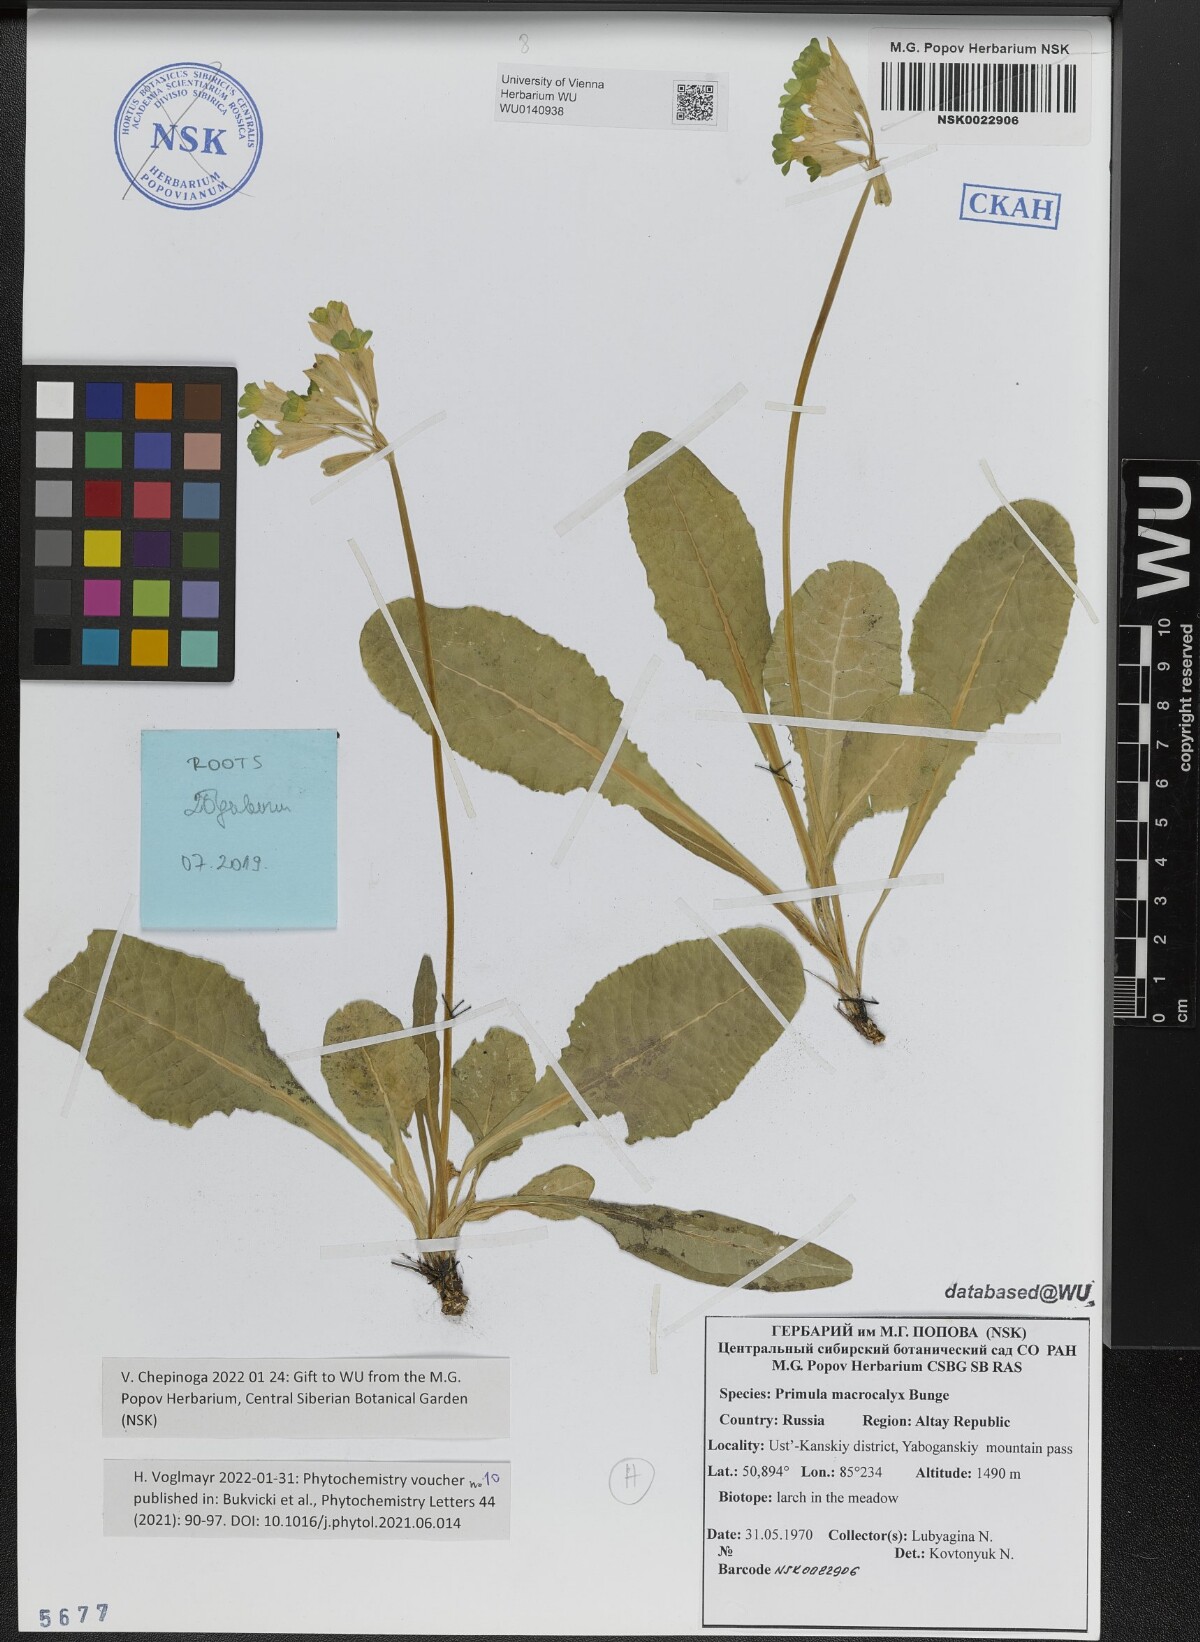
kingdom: Plantae
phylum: Tracheophyta
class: Magnoliopsida
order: Ericales
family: Primulaceae
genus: Primula
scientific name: Primula veris
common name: Cowslip
